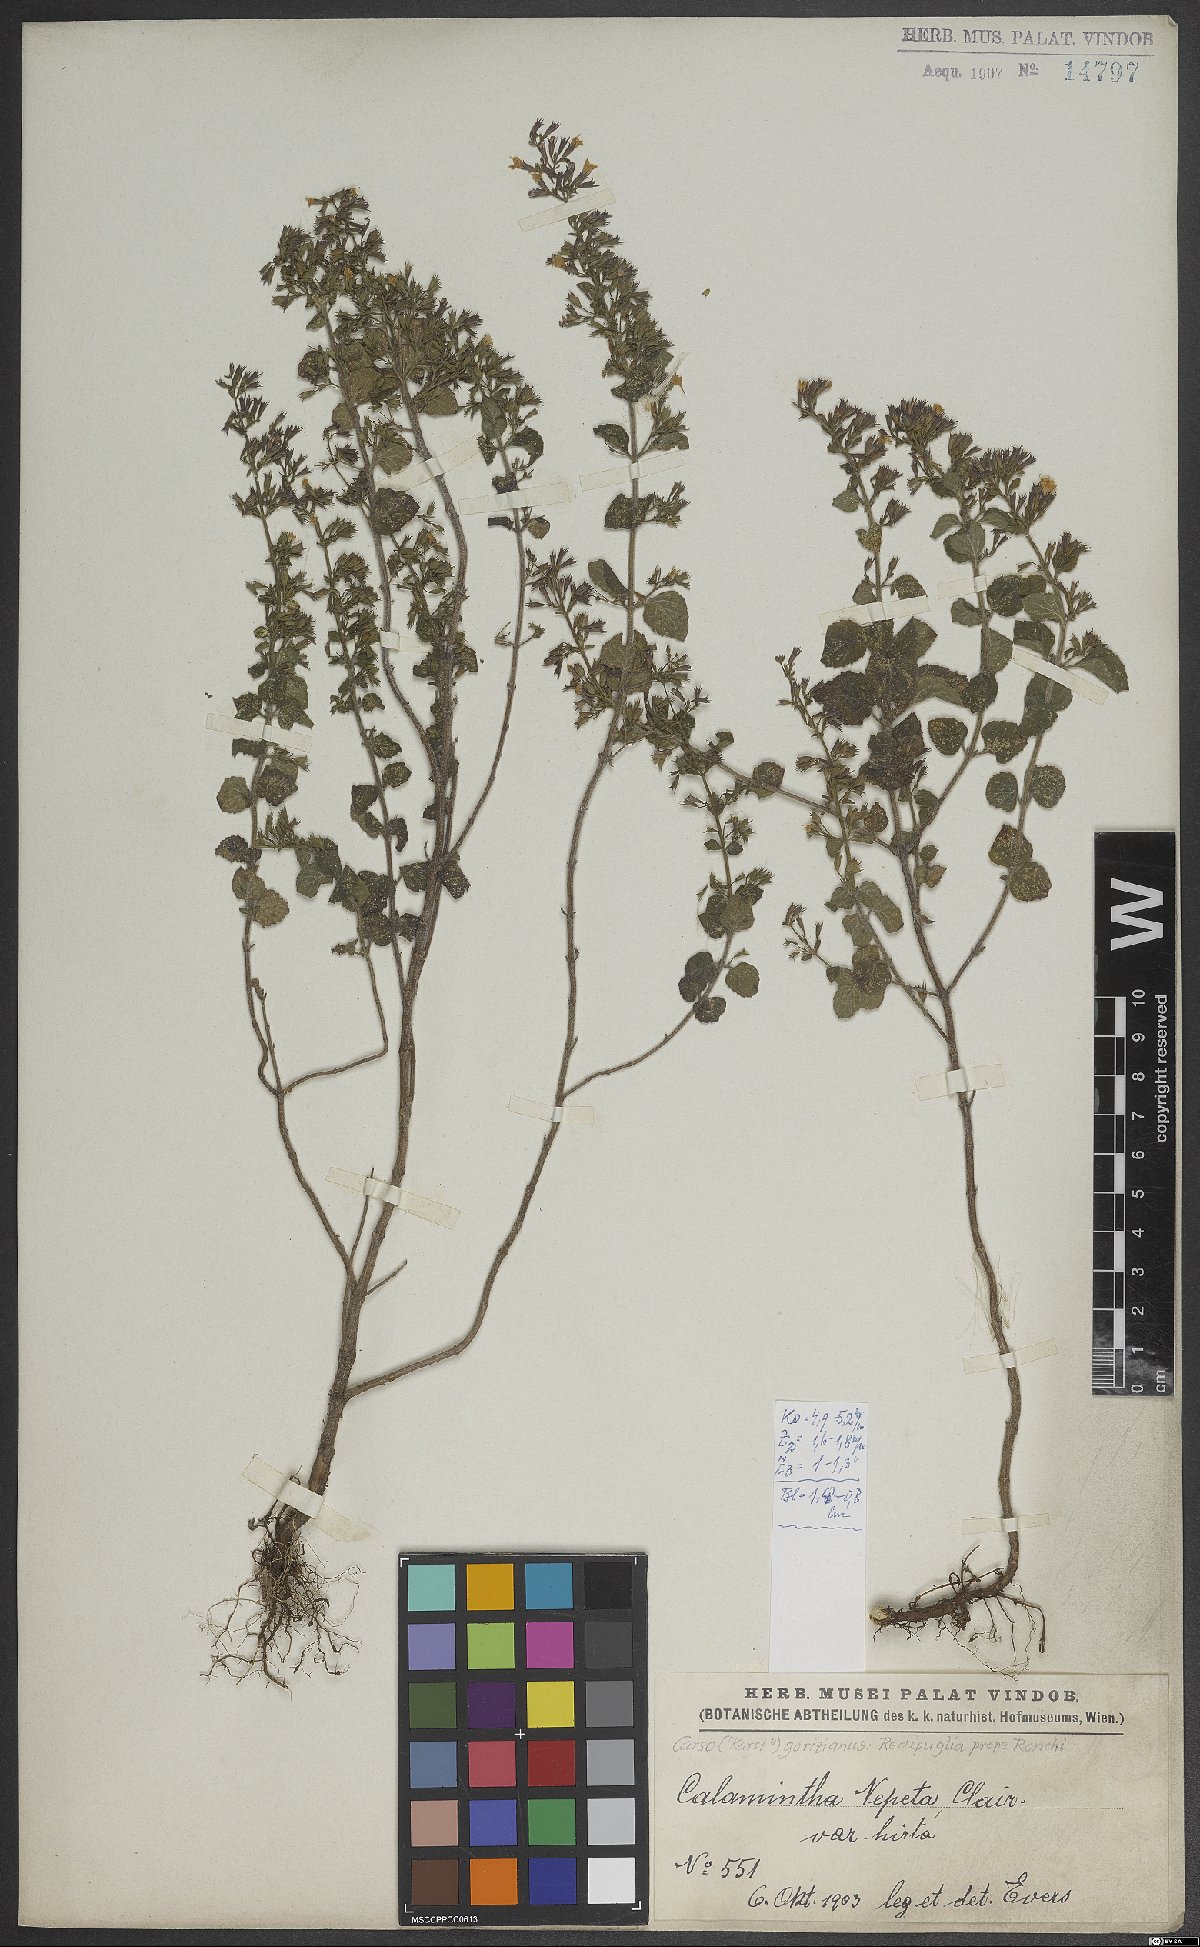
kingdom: Plantae
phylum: Tracheophyta
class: Magnoliopsida
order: Lamiales
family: Lamiaceae
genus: Clinopodium
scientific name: Clinopodium nepeta
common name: Lesser calamint
